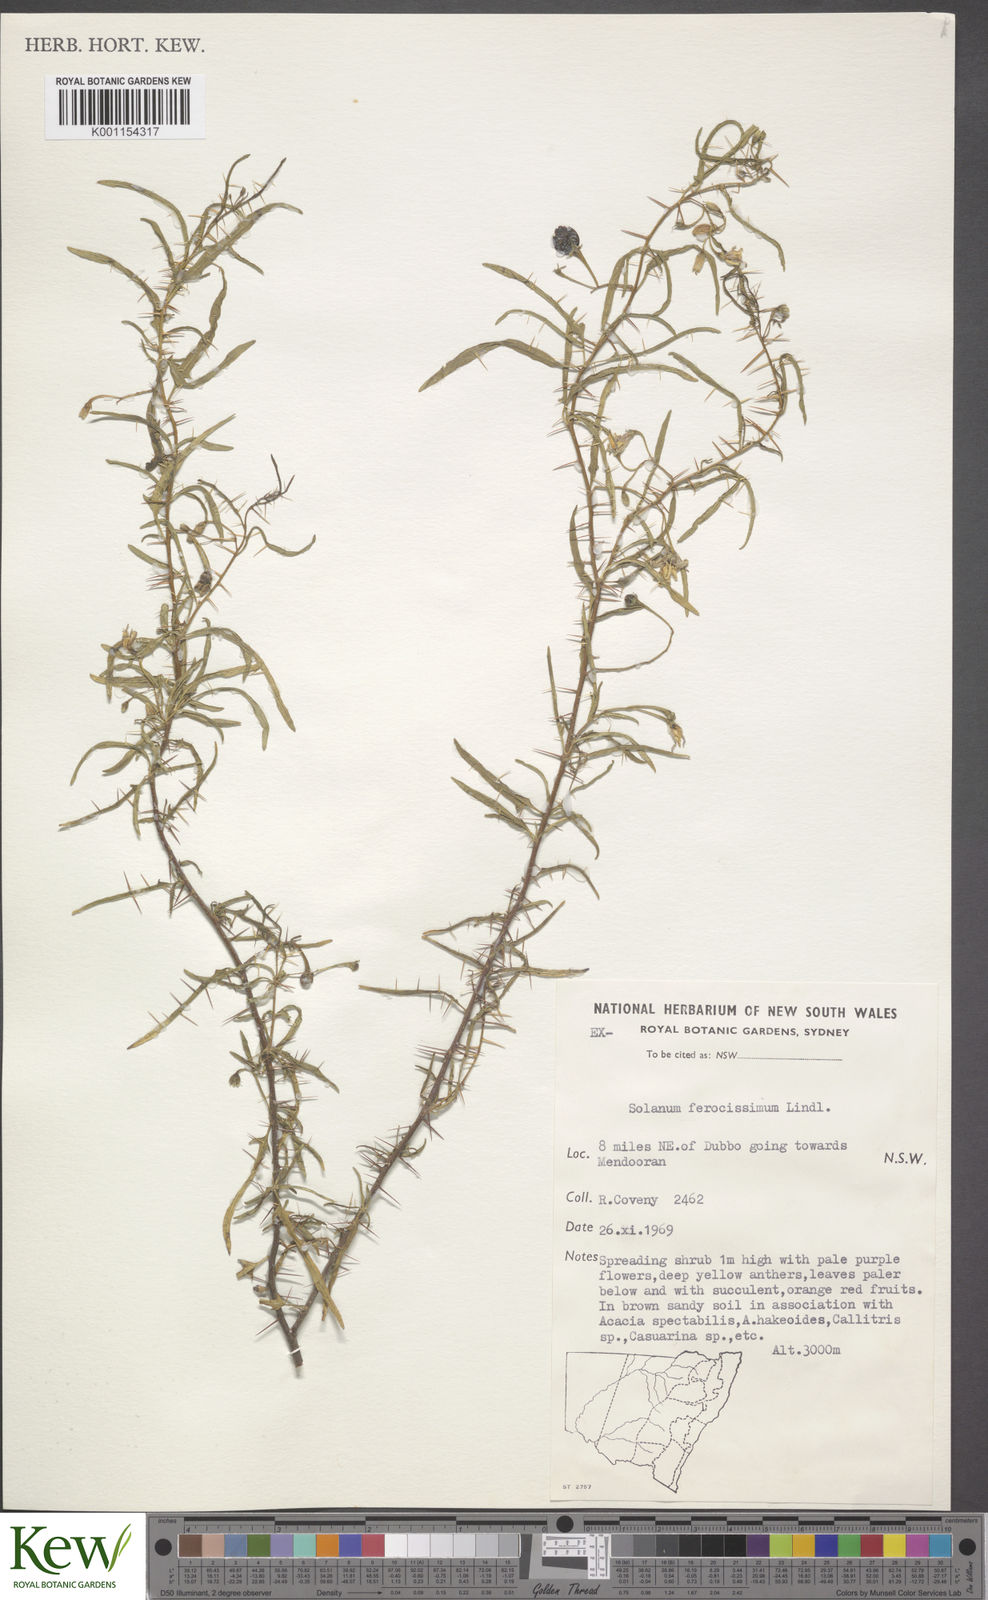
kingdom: Plantae
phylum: Tracheophyta
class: Magnoliopsida
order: Solanales
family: Solanaceae
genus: Solanum
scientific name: Solanum ferocissimum
